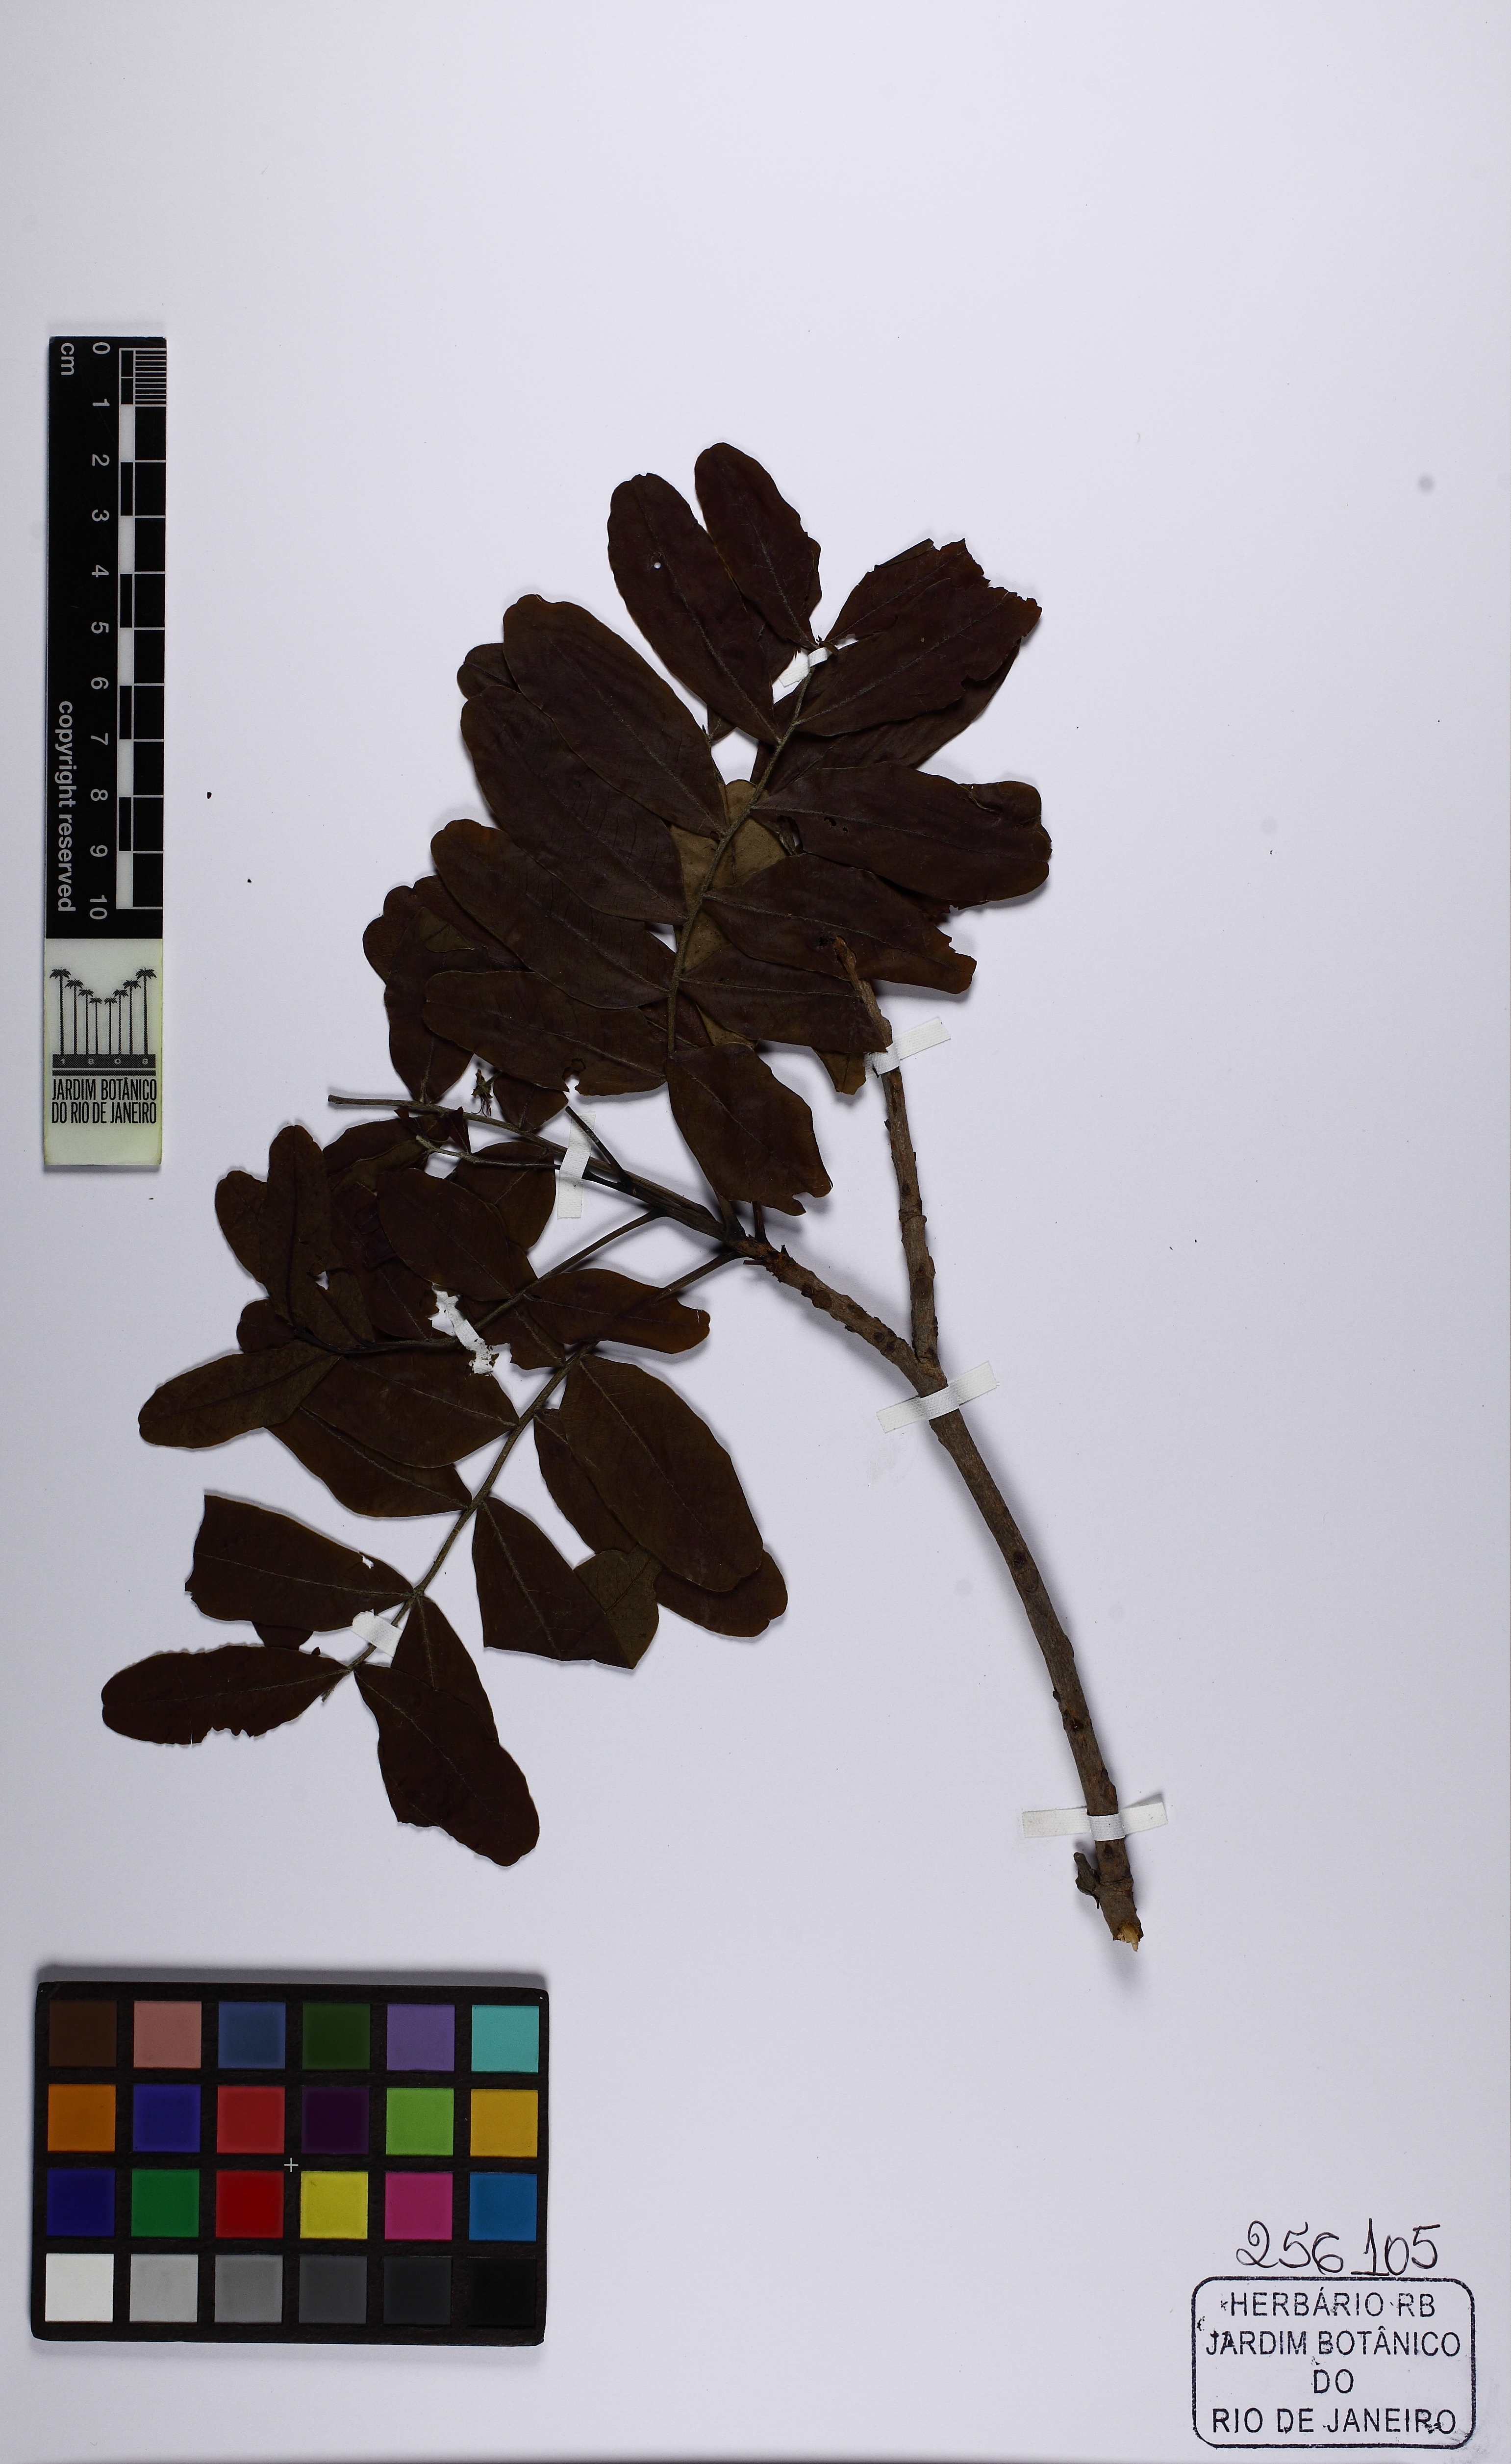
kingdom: Plantae
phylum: Tracheophyta
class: Magnoliopsida
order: Sapindales
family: Sapindaceae
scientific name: Sapindaceae
